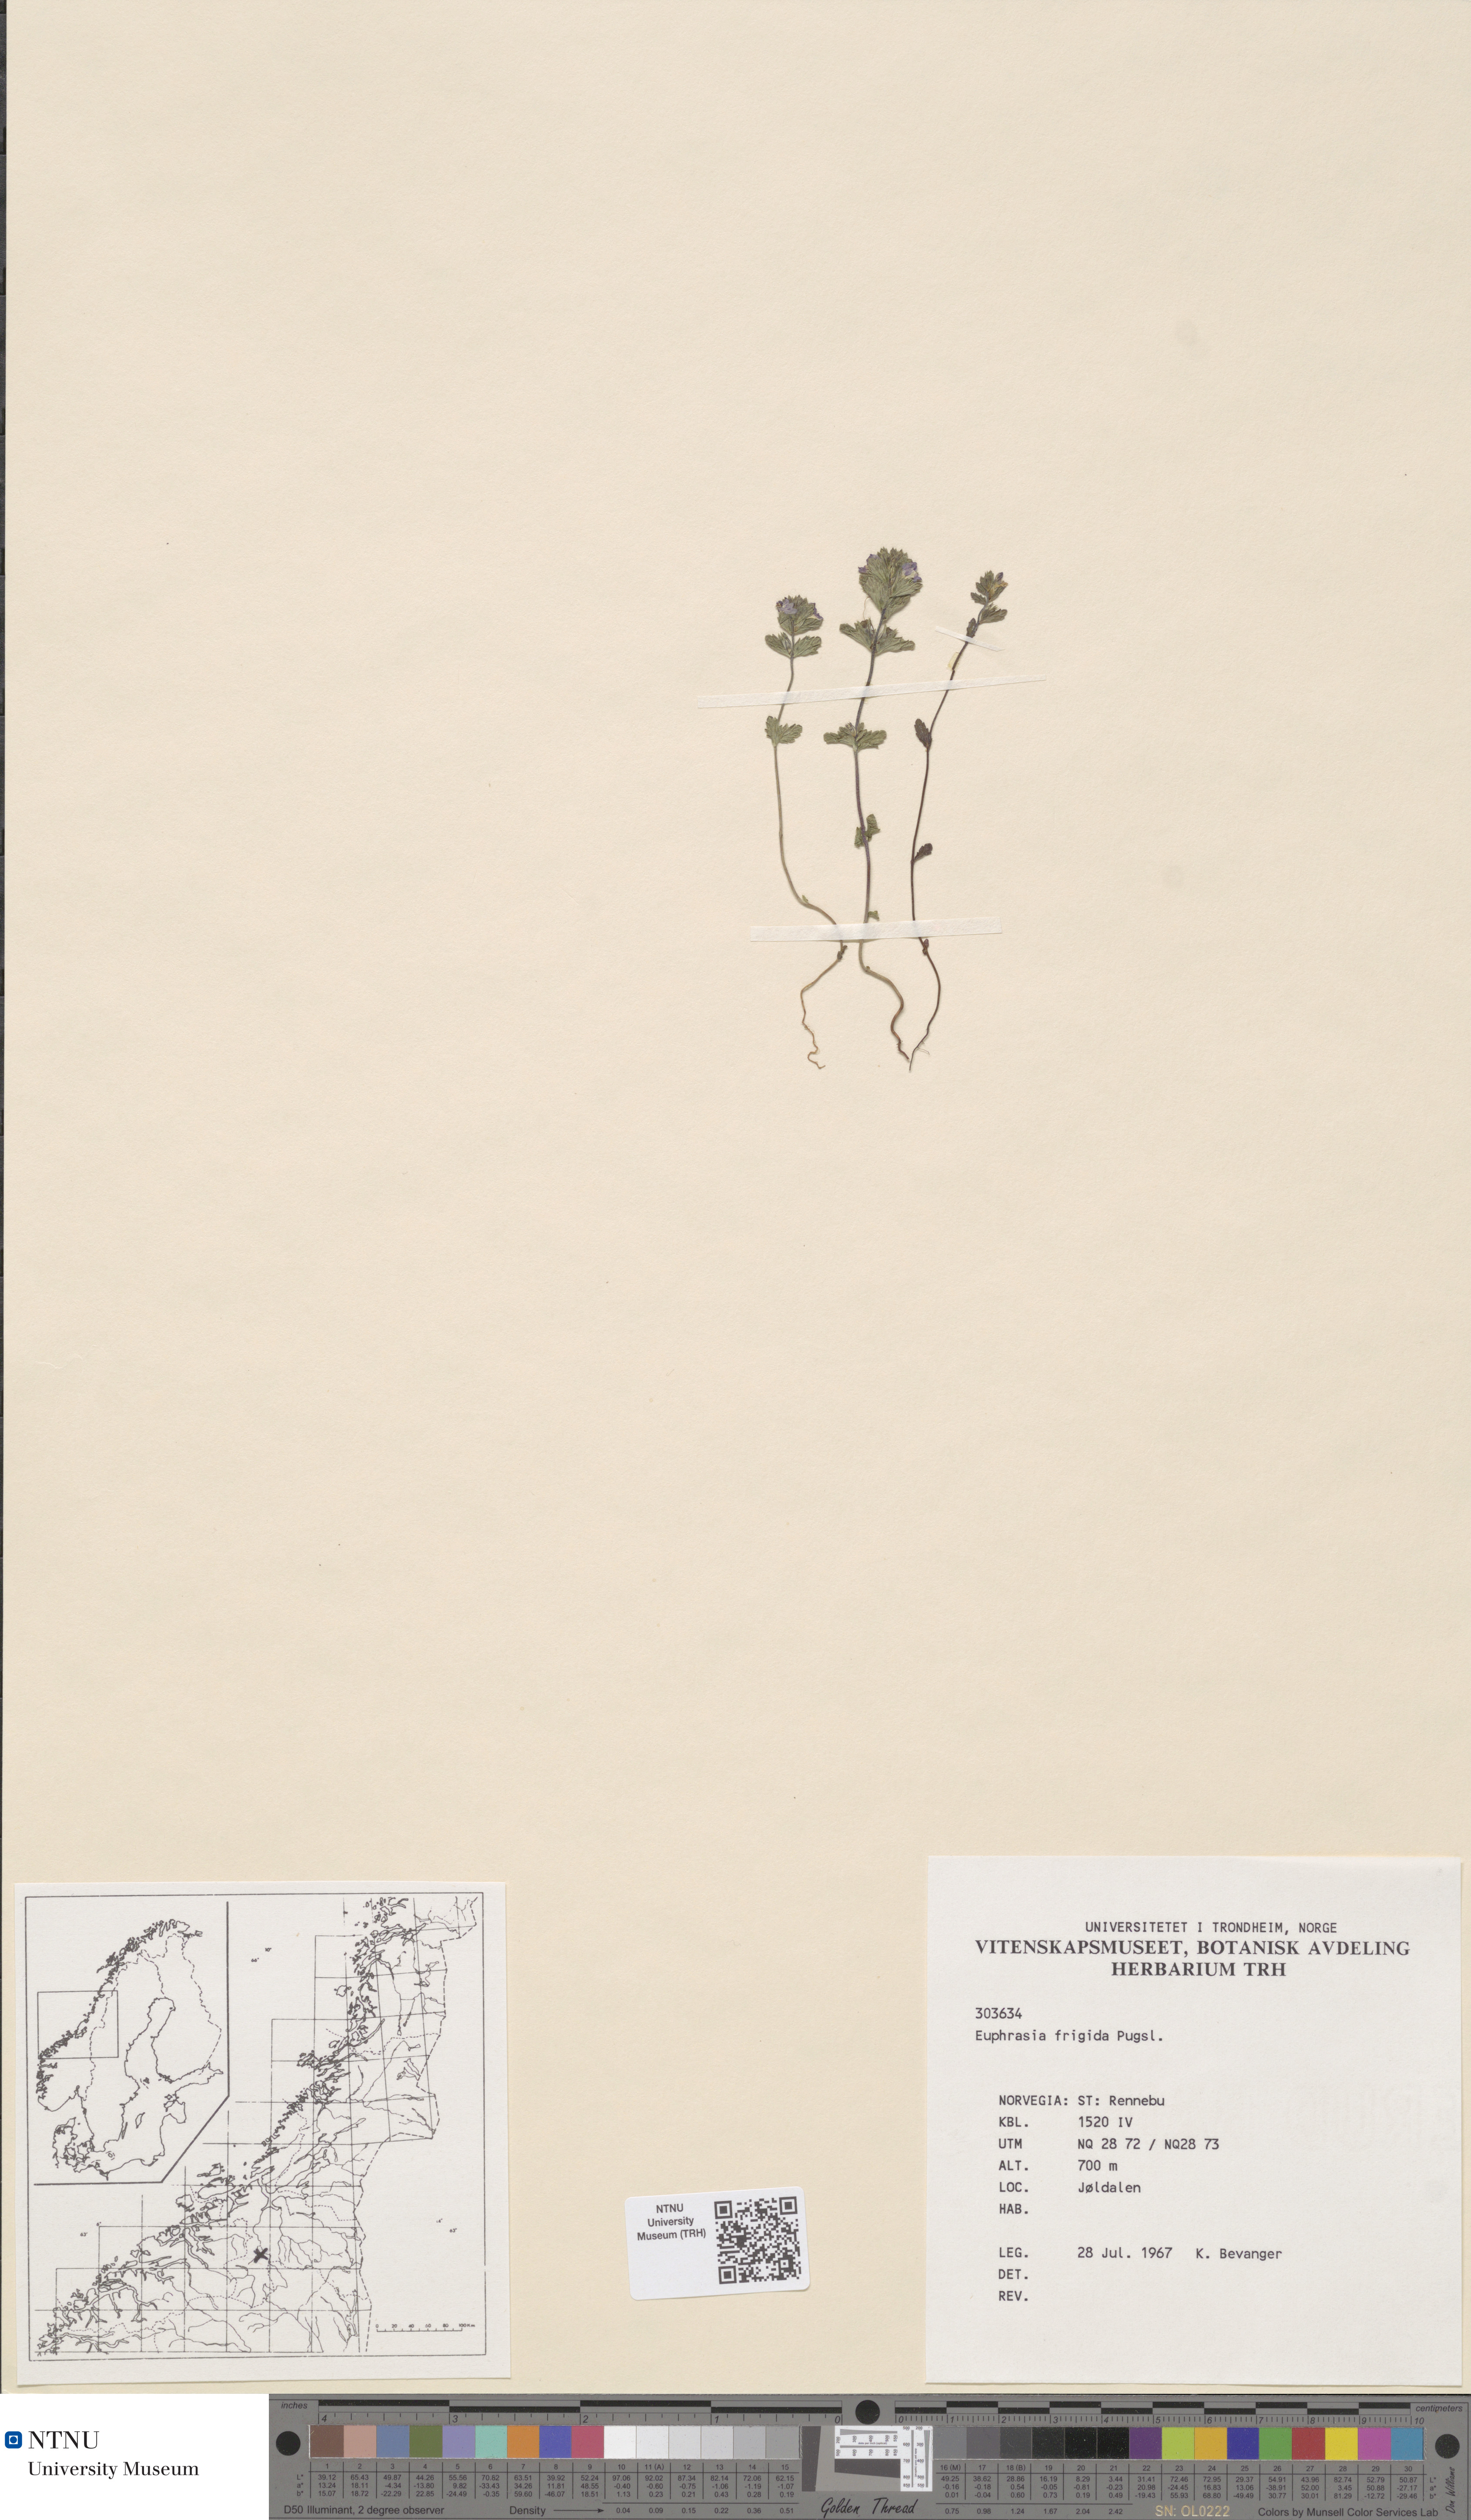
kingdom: Plantae
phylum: Tracheophyta
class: Magnoliopsida
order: Lamiales
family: Orobanchaceae
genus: Euphrasia
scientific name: Euphrasia wettsteinii
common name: Wettstein's eyebright
